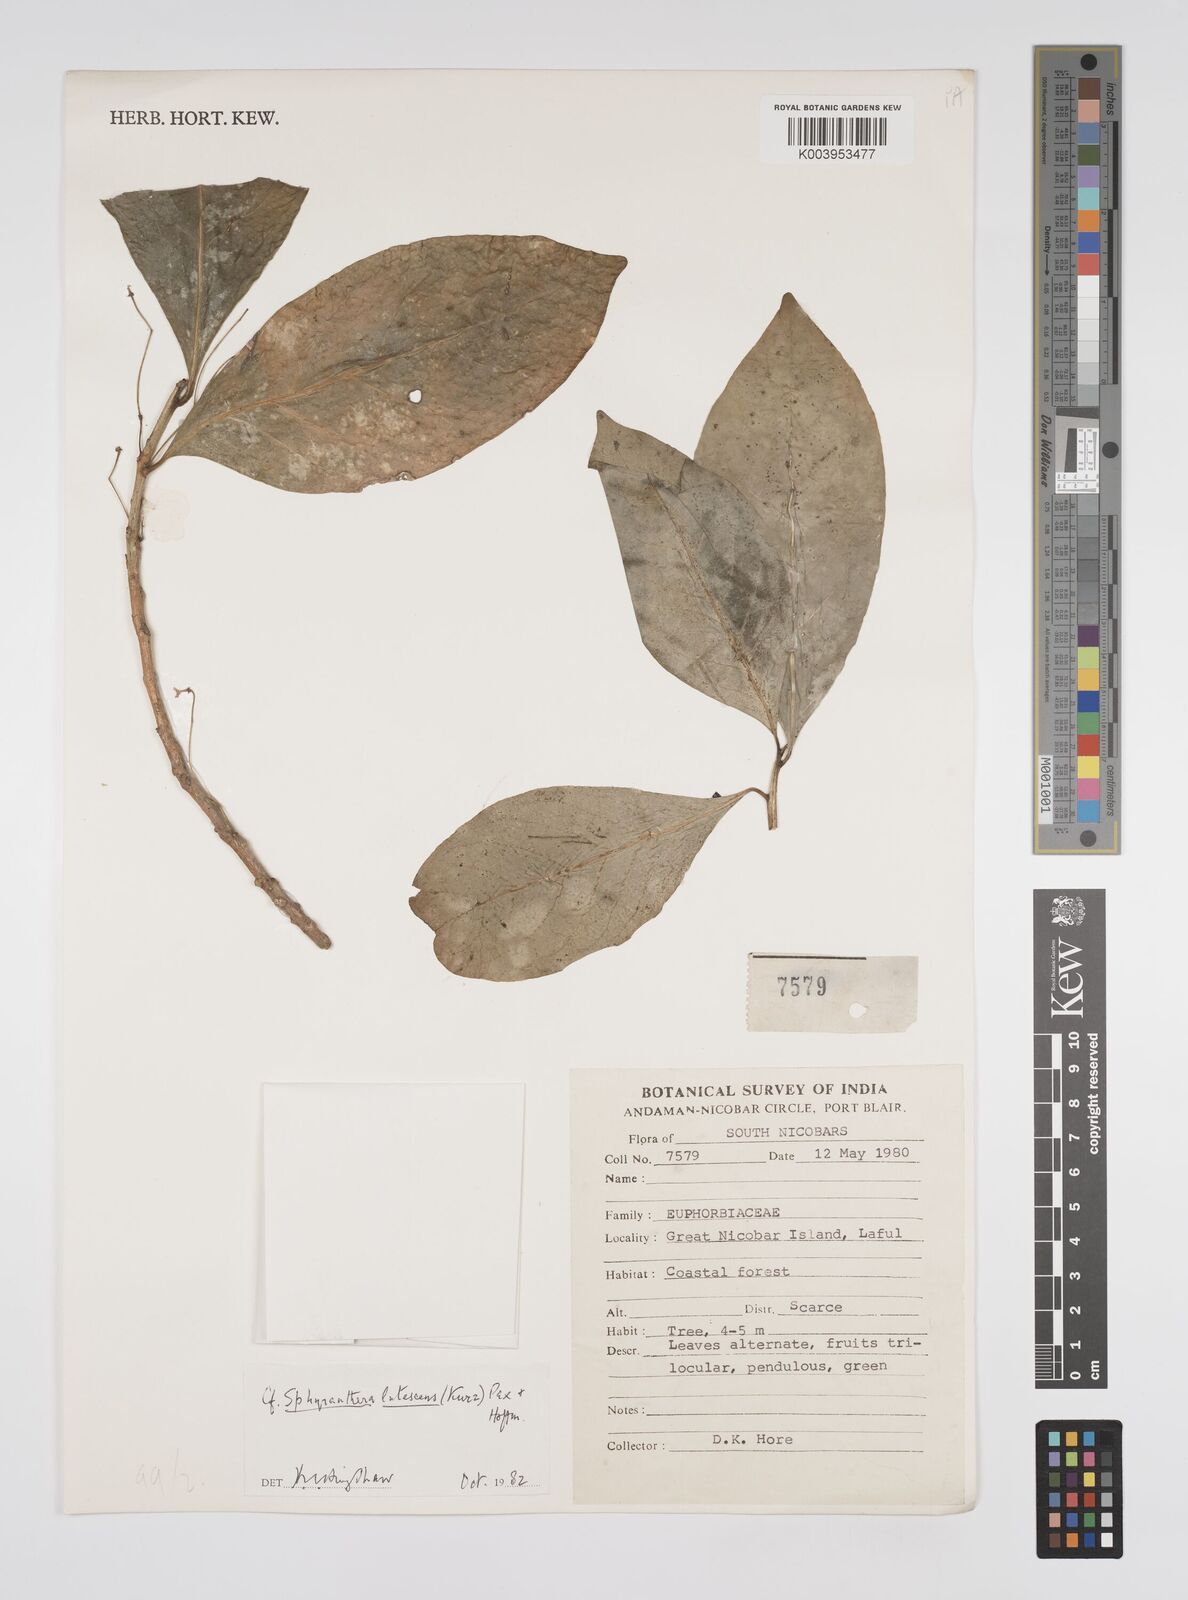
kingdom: Plantae
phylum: Tracheophyta
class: Magnoliopsida
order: Malpighiales
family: Euphorbiaceae
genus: Sphyranthera
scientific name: Sphyranthera lutescens
